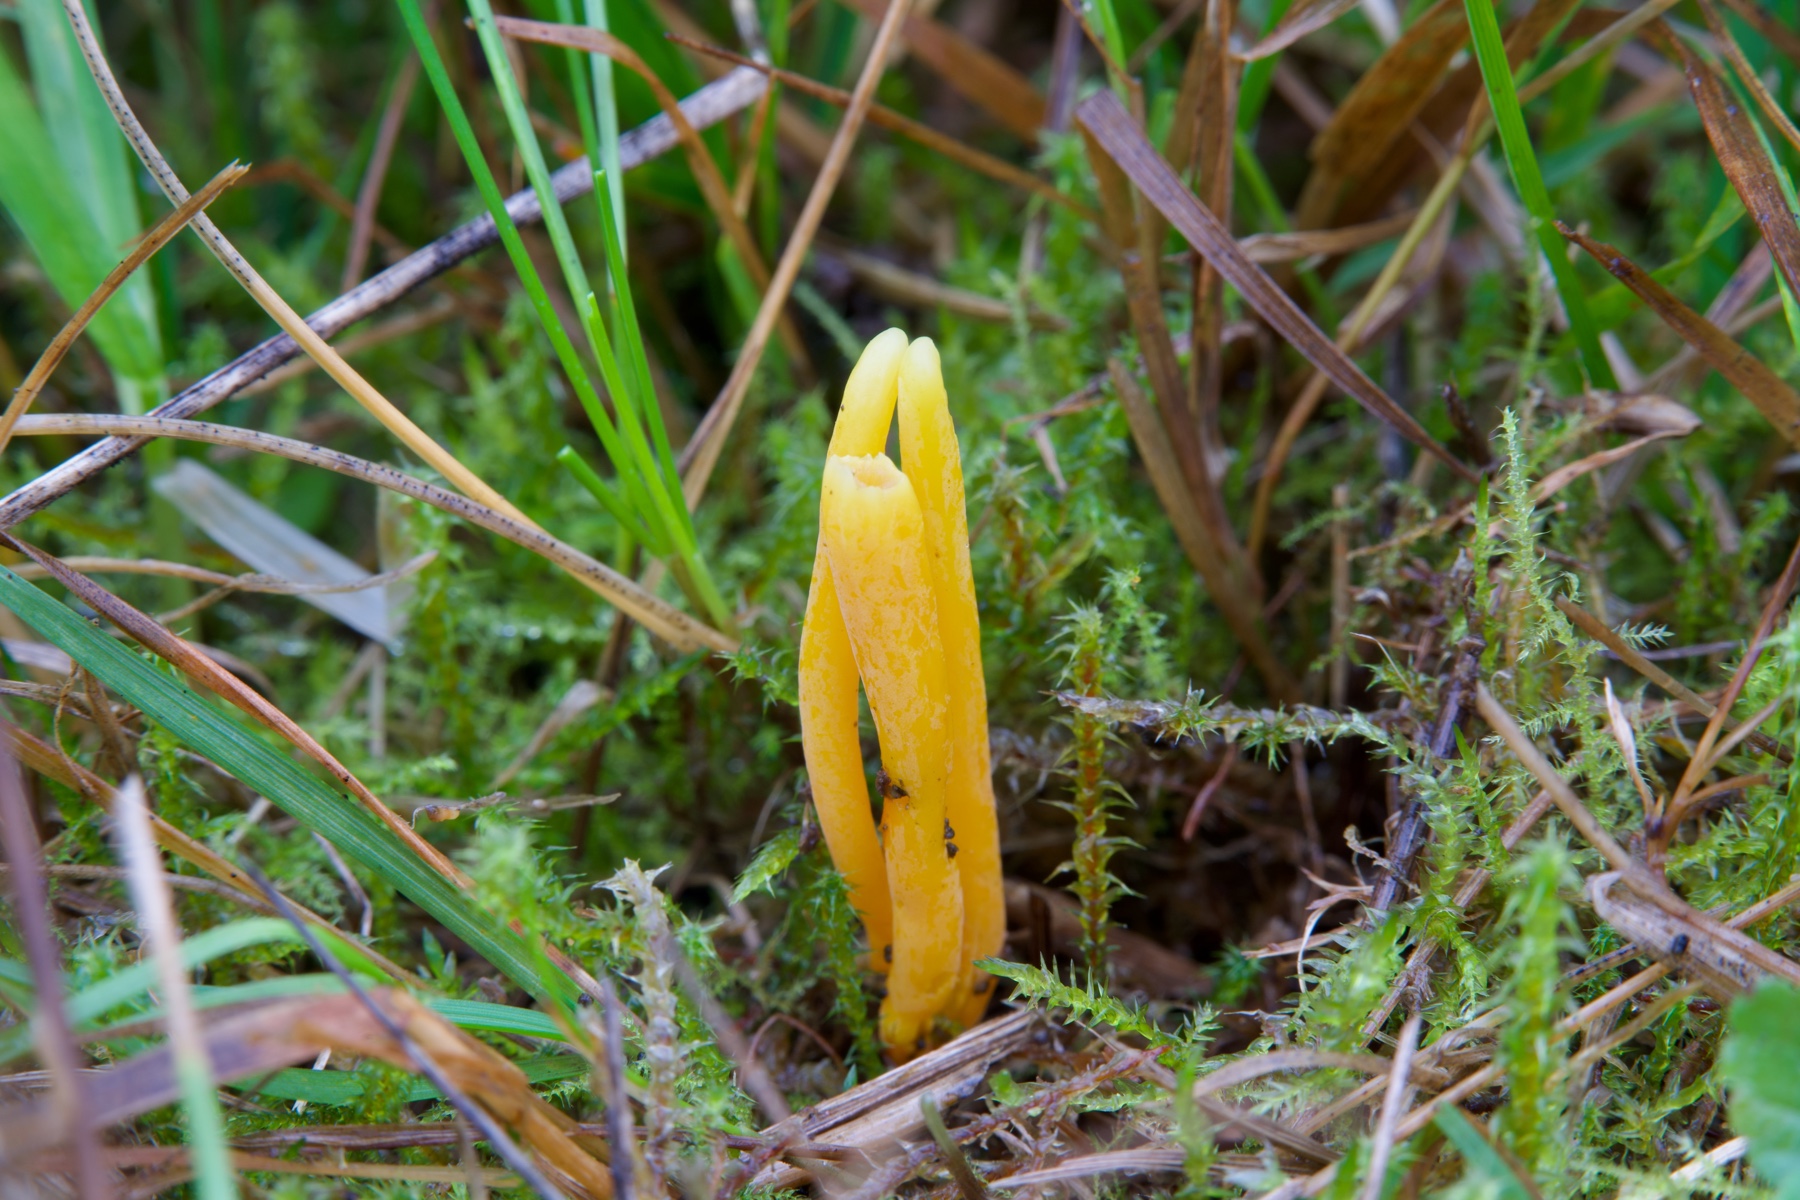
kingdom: Fungi
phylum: Basidiomycota
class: Agaricomycetes
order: Agaricales
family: Clavariaceae
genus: Clavulinopsis
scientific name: Clavulinopsis laeticolor
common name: flamme-køllesvamp
